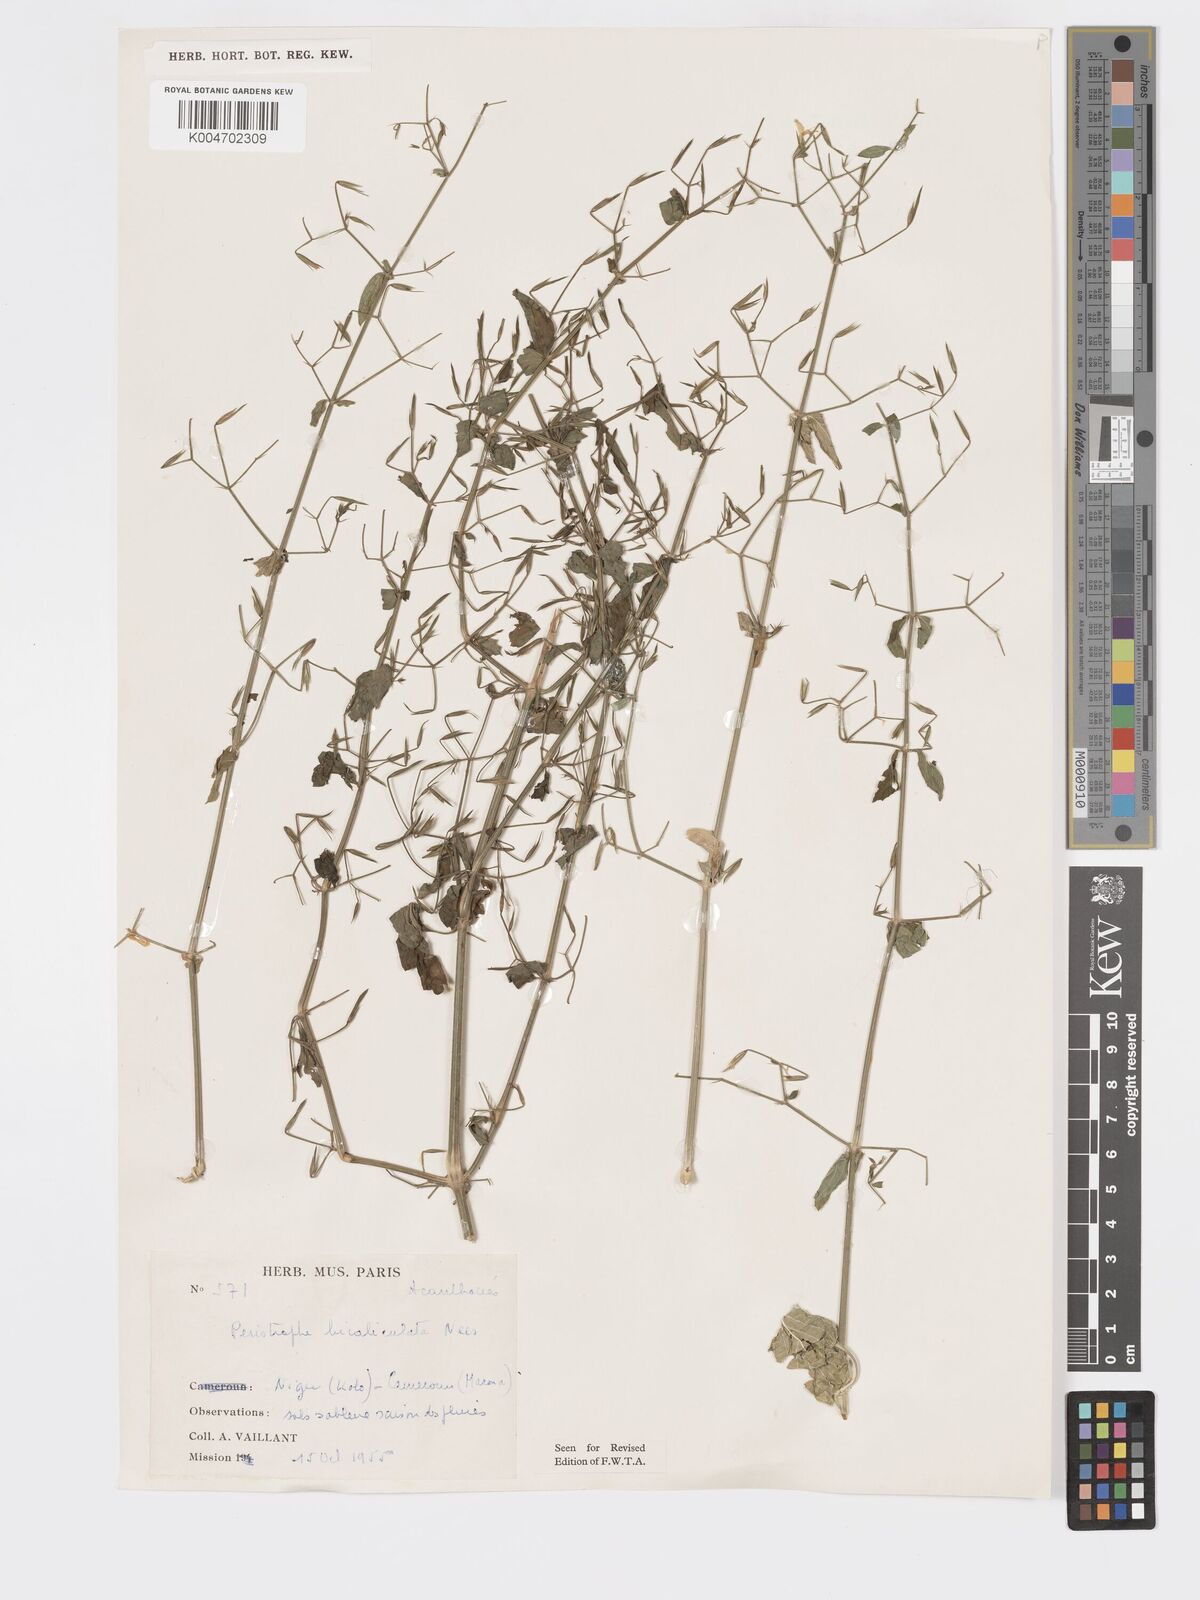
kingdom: Plantae
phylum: Tracheophyta
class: Magnoliopsida
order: Lamiales
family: Acanthaceae
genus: Dicliptera
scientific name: Dicliptera paniculata
